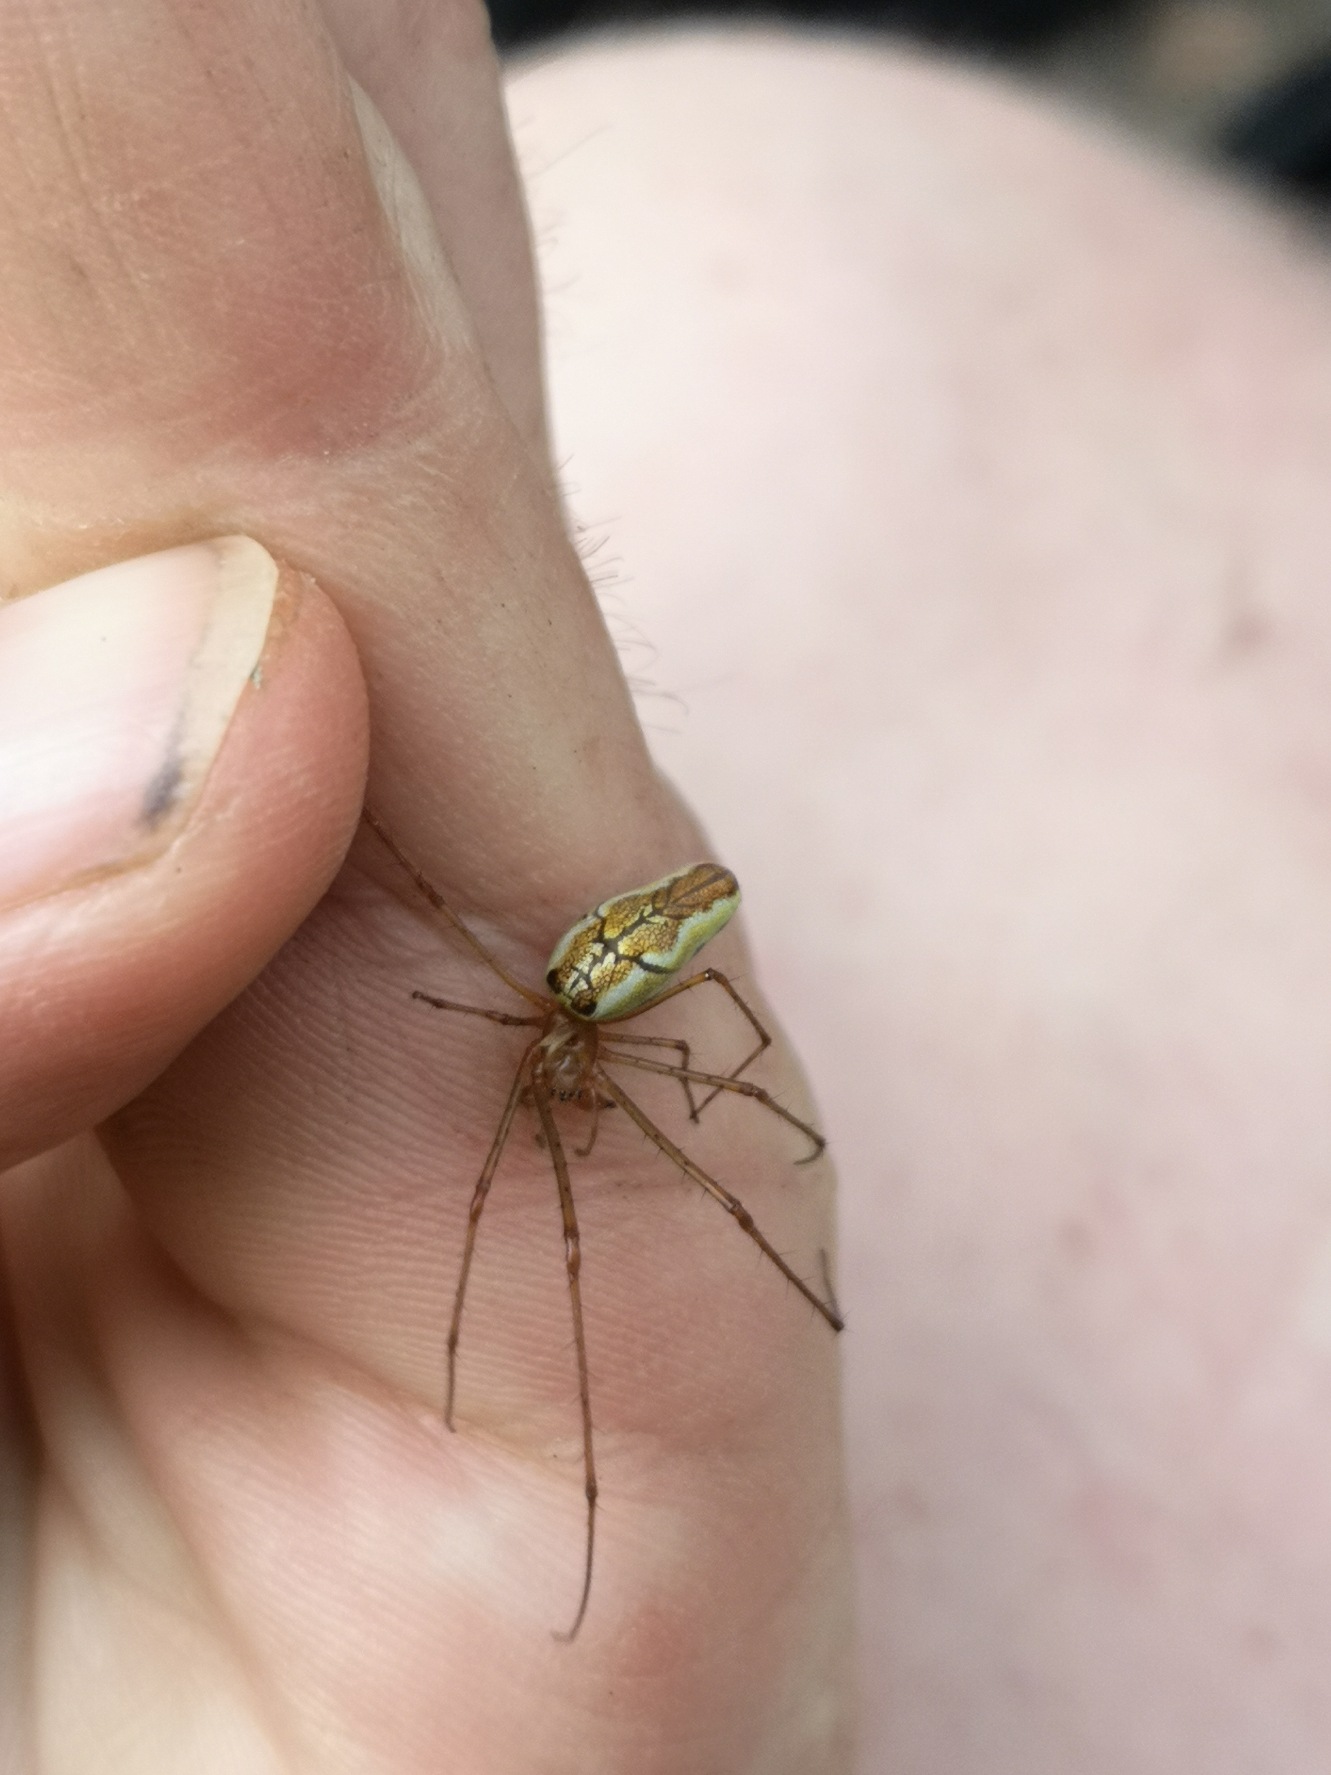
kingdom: Animalia
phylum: Arthropoda
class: Arachnida
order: Araneae
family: Tetragnathidae
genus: Tetragnatha
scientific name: Tetragnatha extensa
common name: Engstavedderkop
